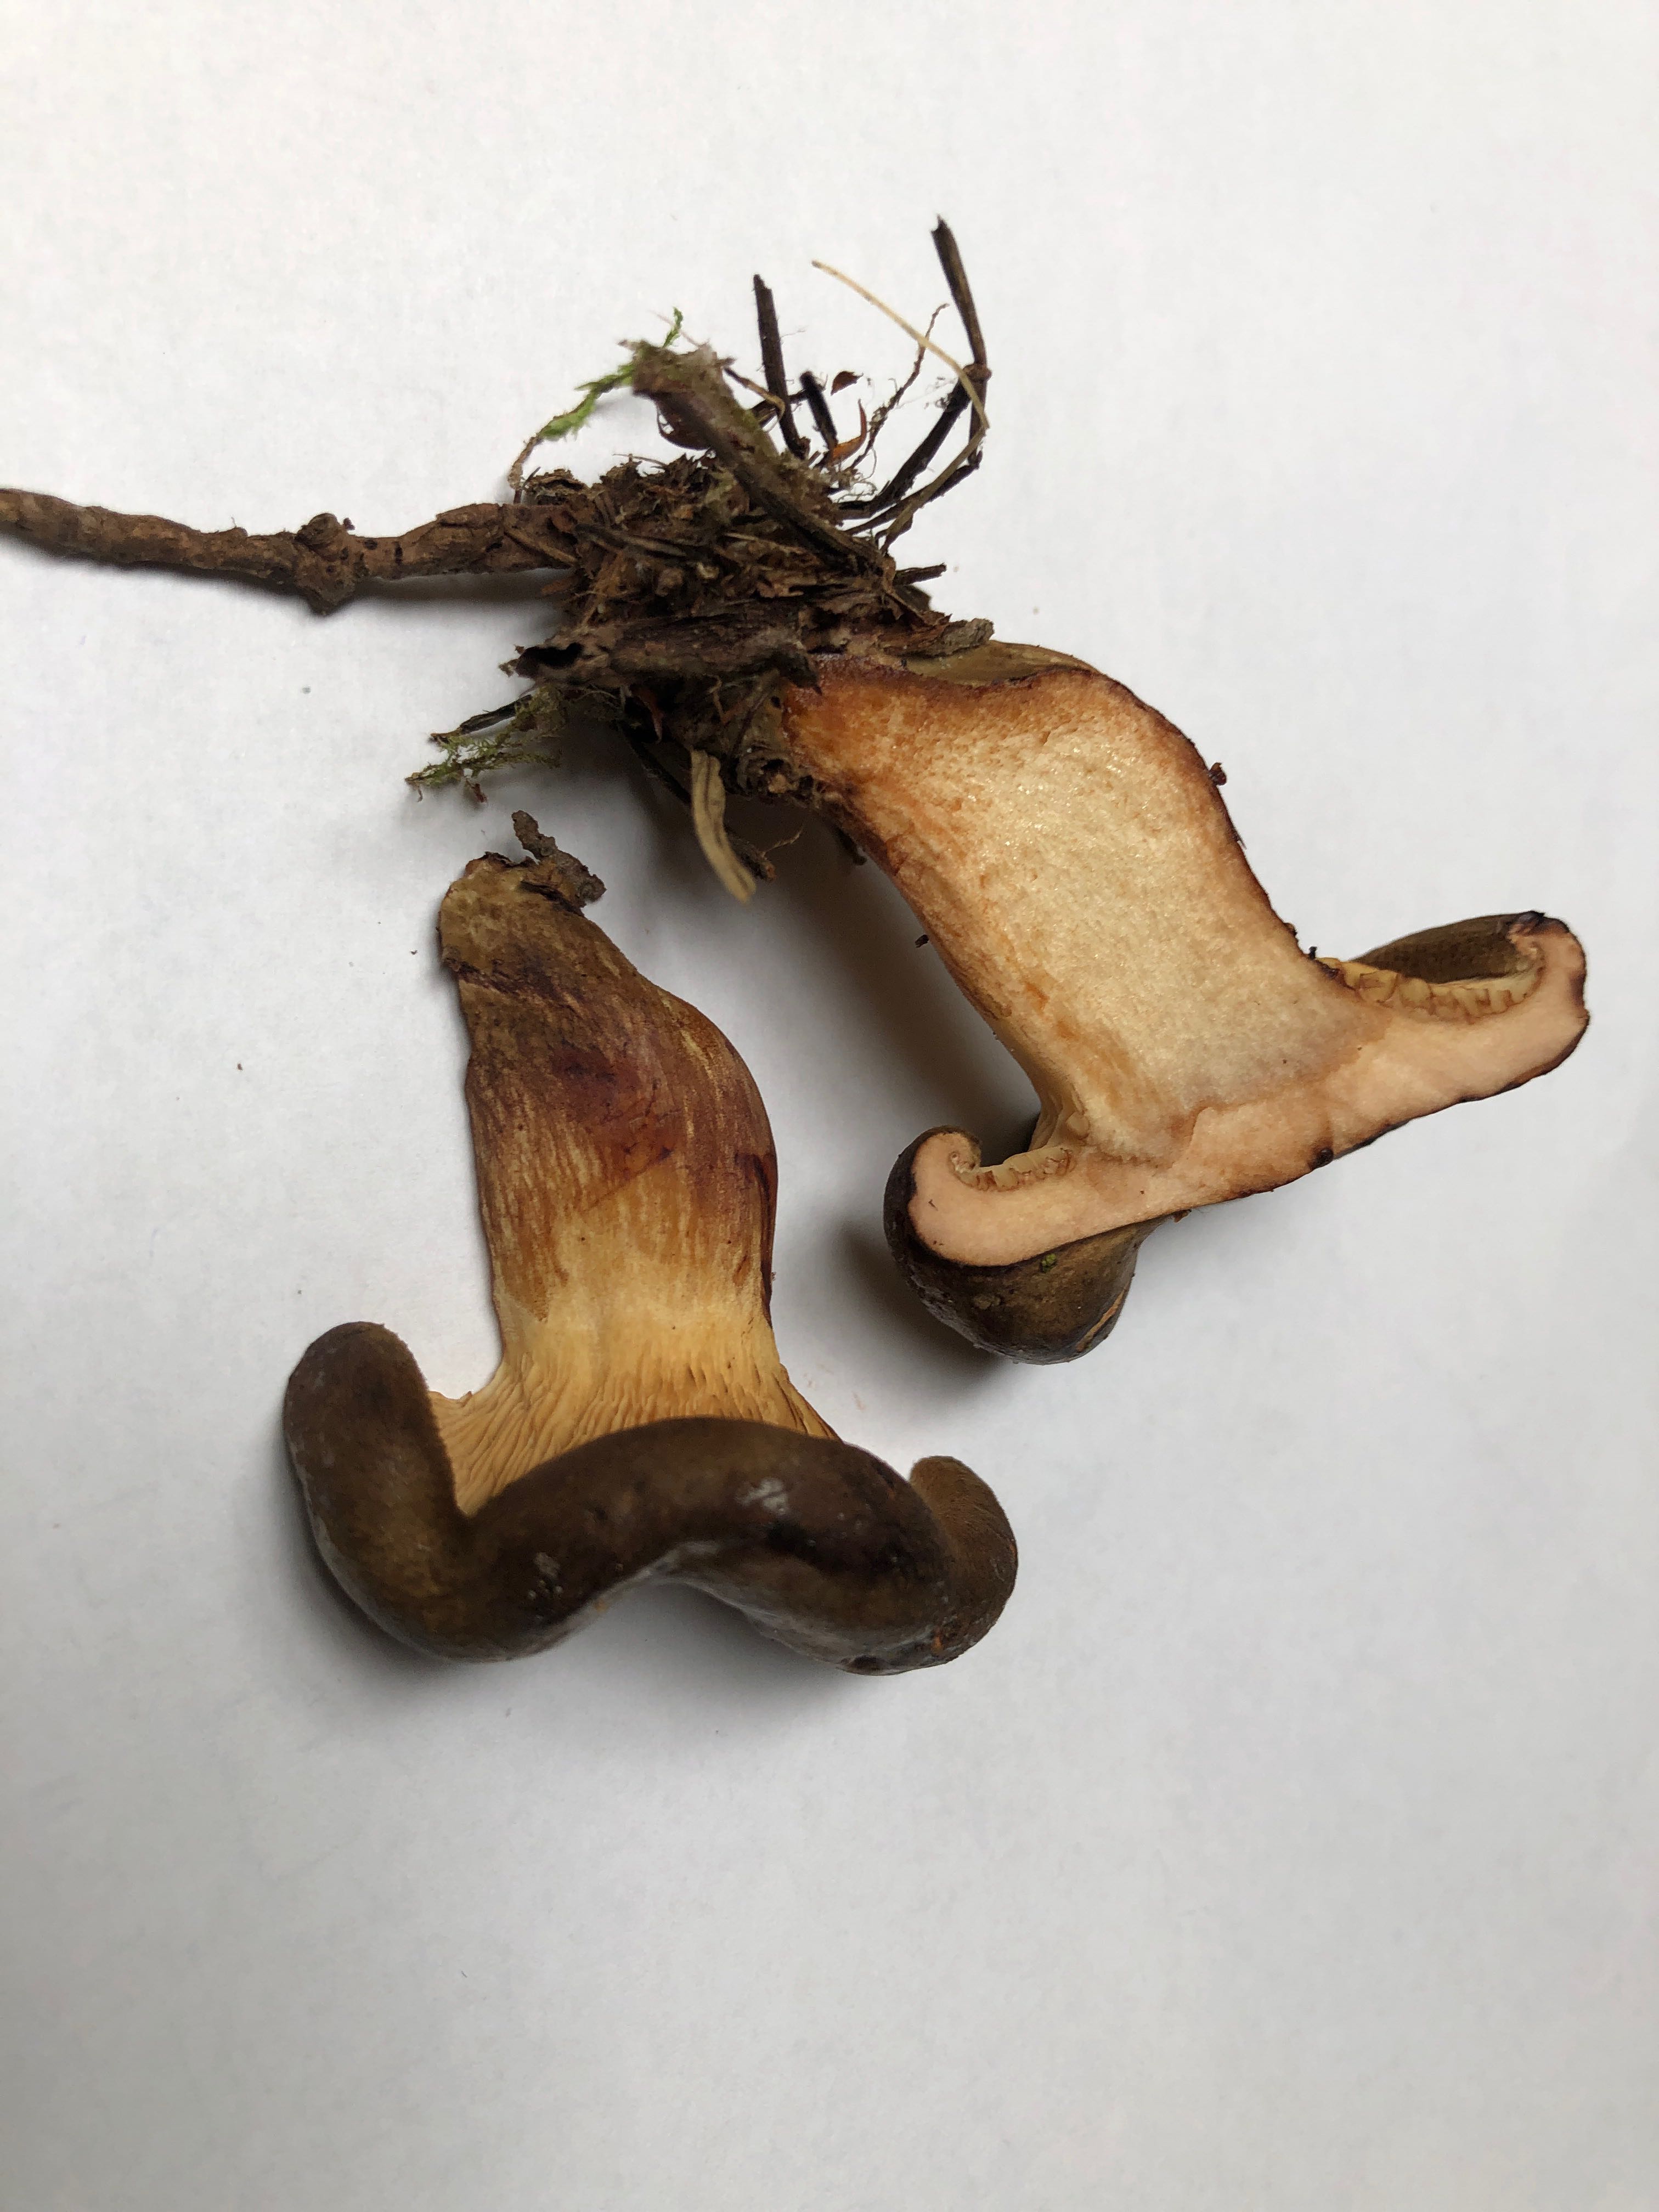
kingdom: Fungi
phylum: Basidiomycota
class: Agaricomycetes
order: Boletales
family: Paxillaceae
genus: Paxillus
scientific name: Paxillus involutus
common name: almindelig netbladhat
